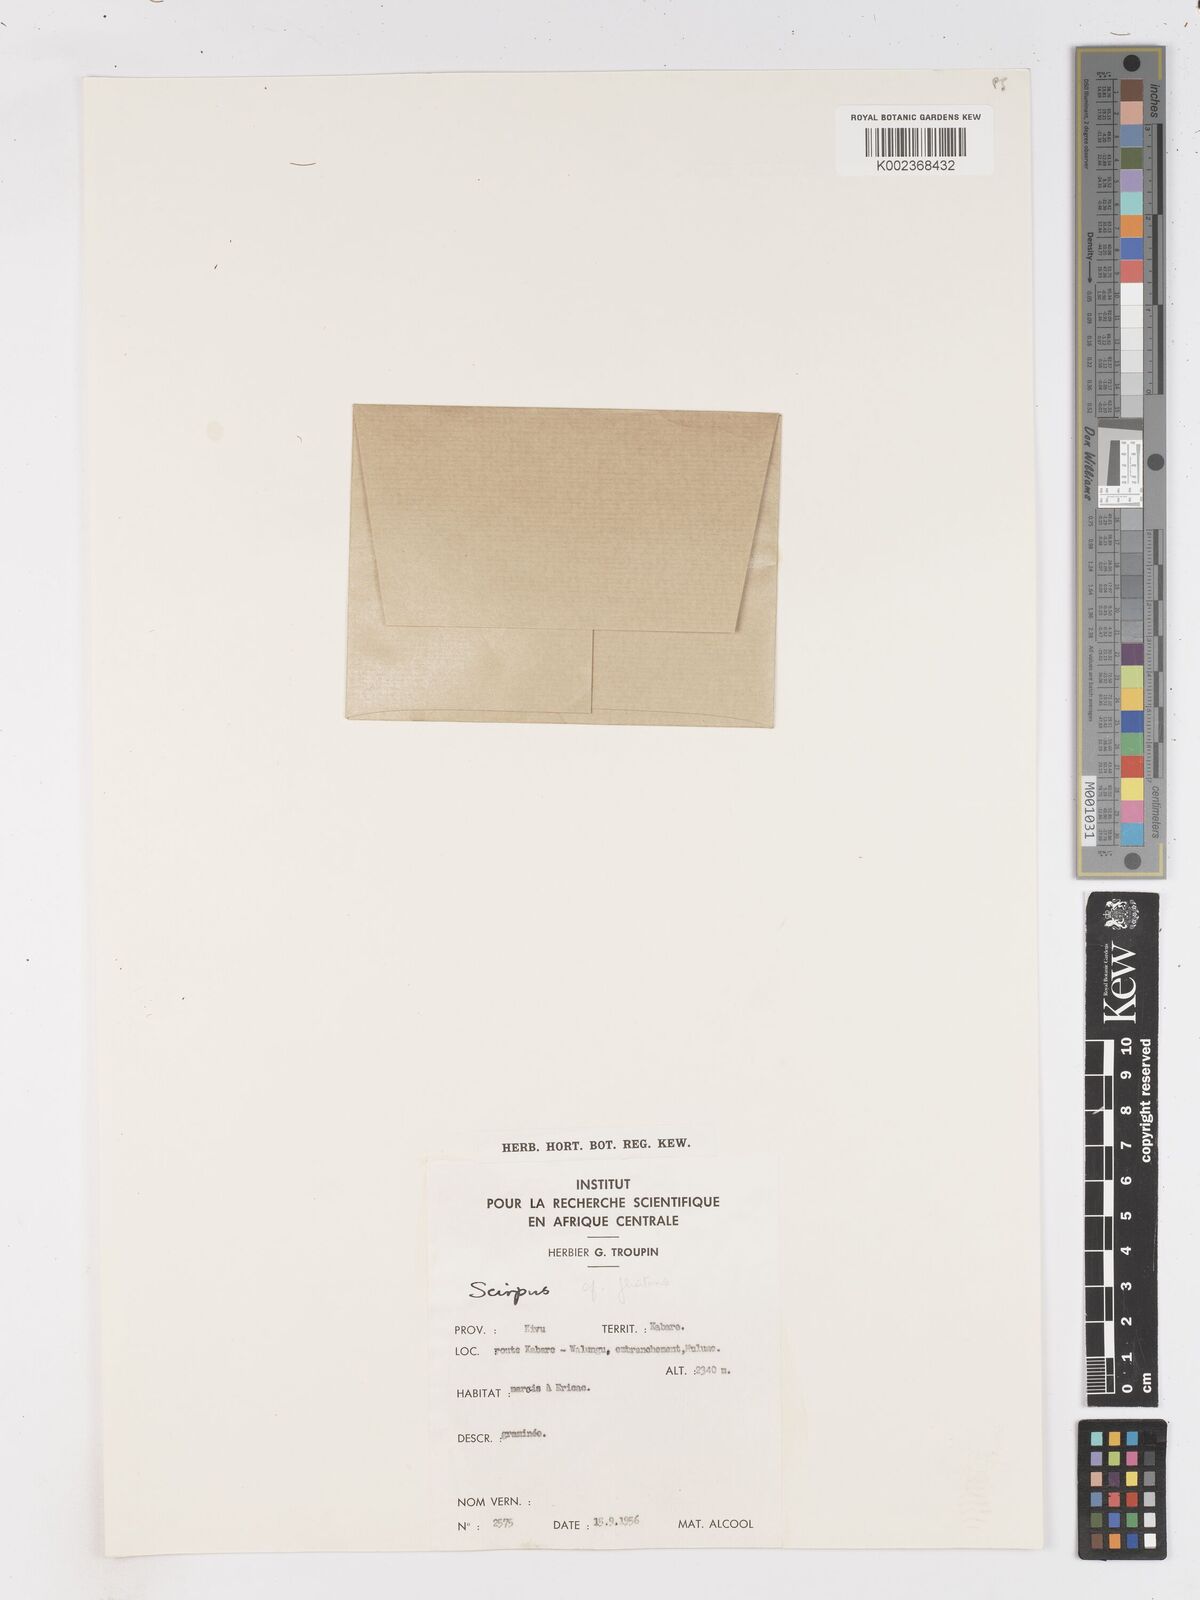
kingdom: Plantae
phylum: Tracheophyta
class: Liliopsida
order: Poales
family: Cyperaceae
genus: Isolepis
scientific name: Isolepis costata
